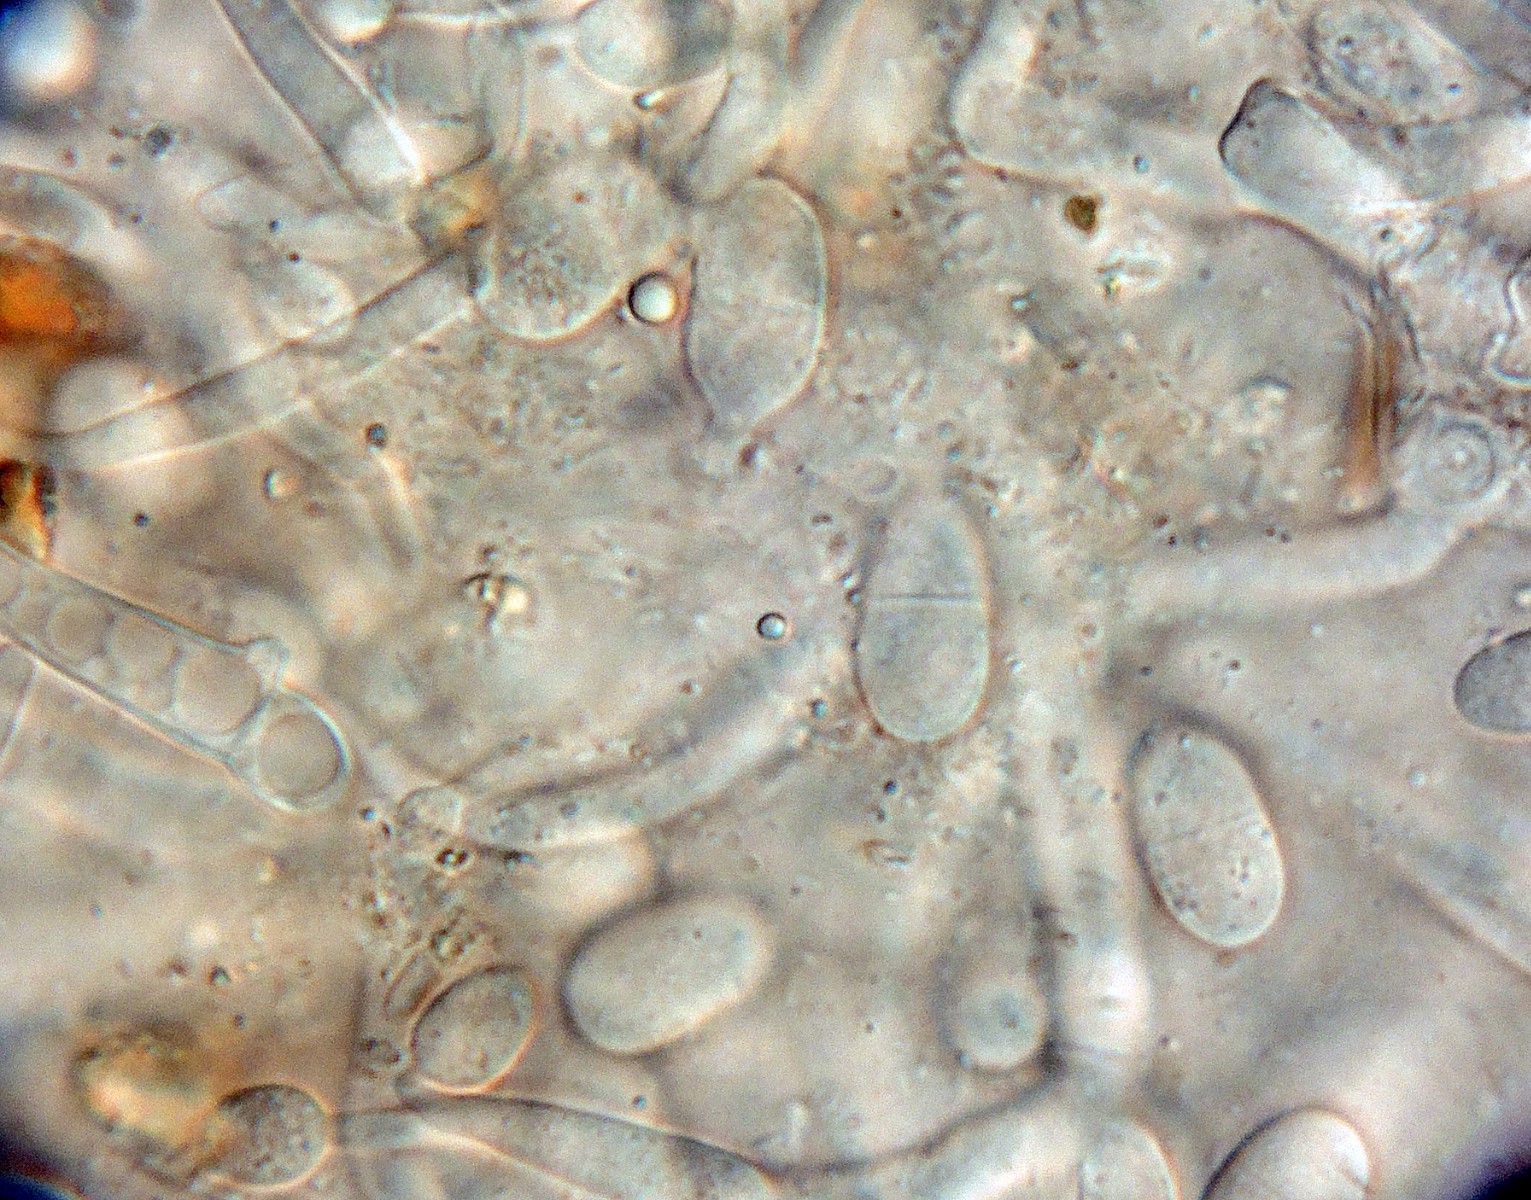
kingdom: Fungi
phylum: Ascomycota
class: Sordariomycetes
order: Hypocreales
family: Hypocreaceae
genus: Hypomyces
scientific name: Hypomyces aurantius
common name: almindelig snylteskorpe
